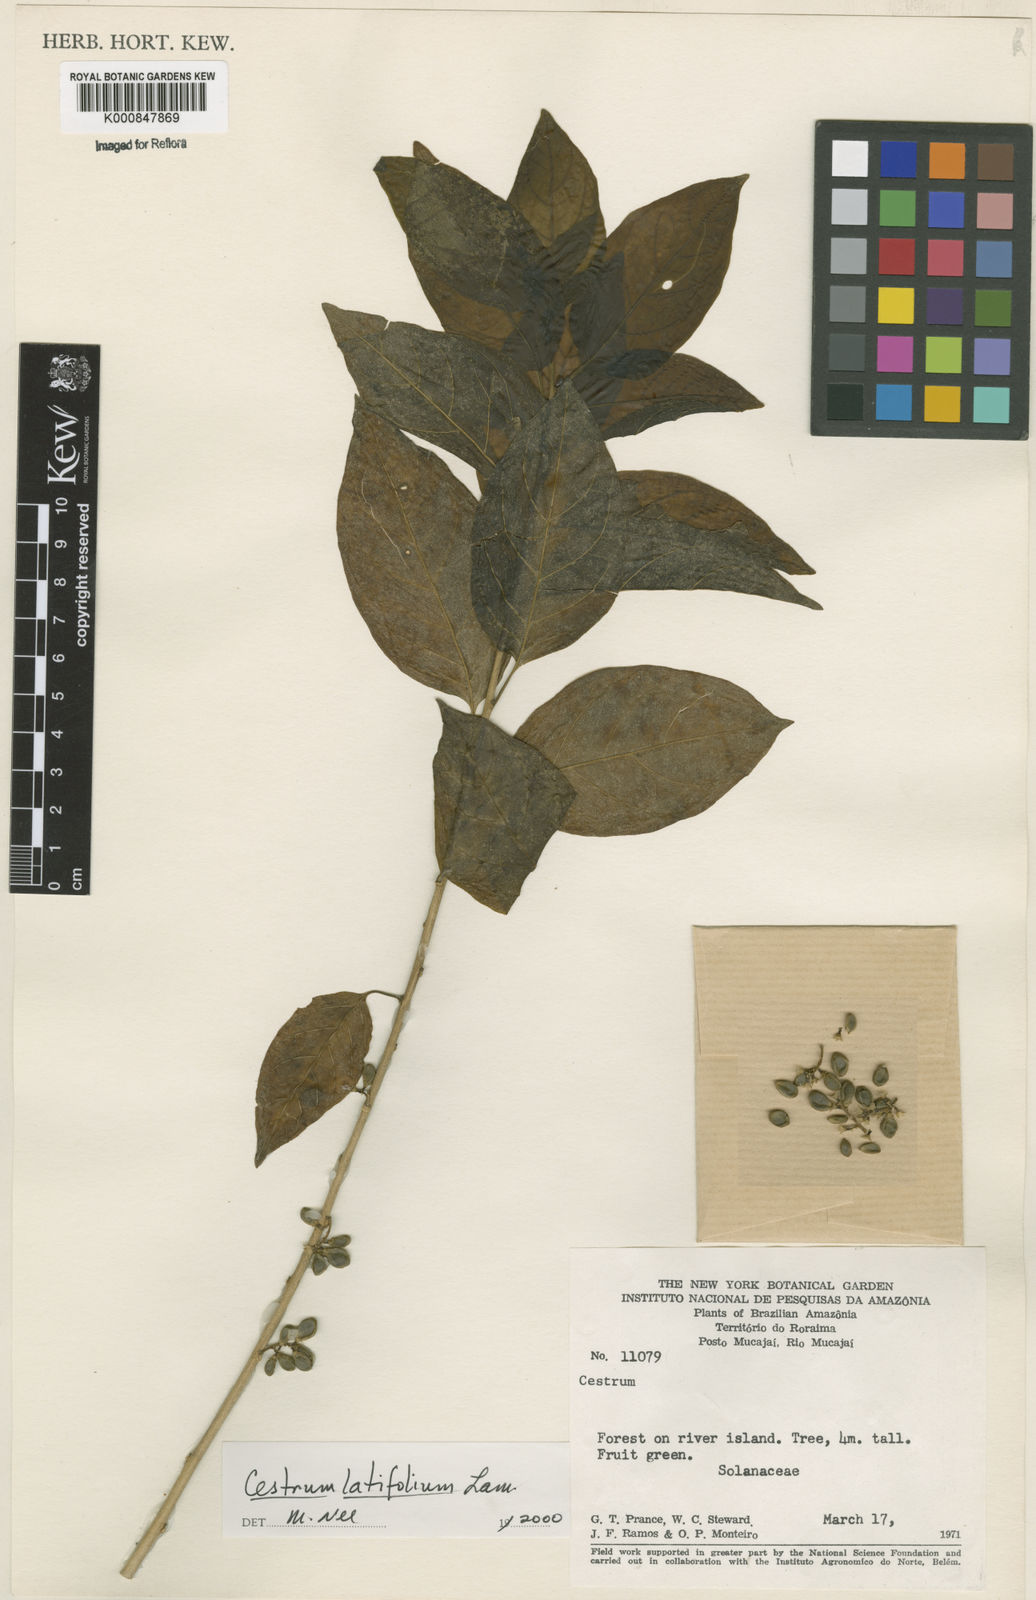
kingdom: Plantae
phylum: Tracheophyta
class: Magnoliopsida
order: Solanales
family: Solanaceae
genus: Cestrum
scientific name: Cestrum latifolium
